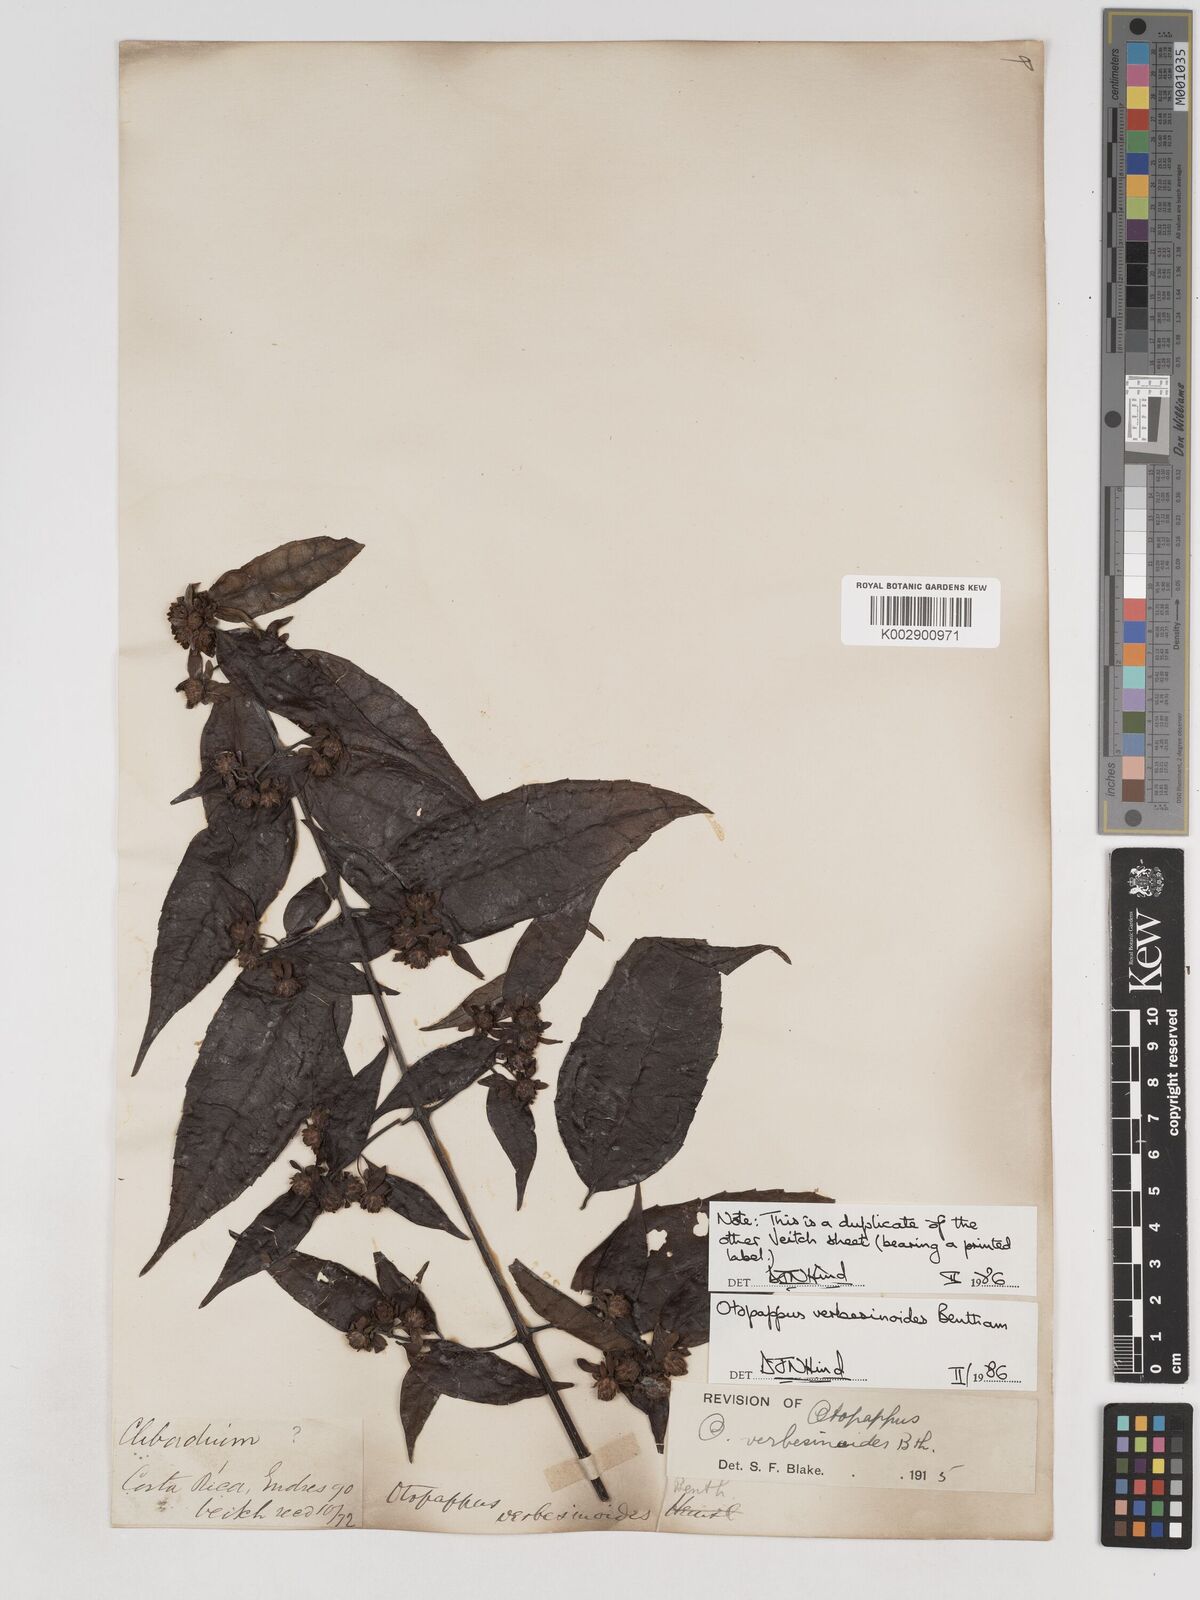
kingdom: Plantae
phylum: Tracheophyta
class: Magnoliopsida
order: Asterales
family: Asteraceae
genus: Otopappus
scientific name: Otopappus verbesinoides
